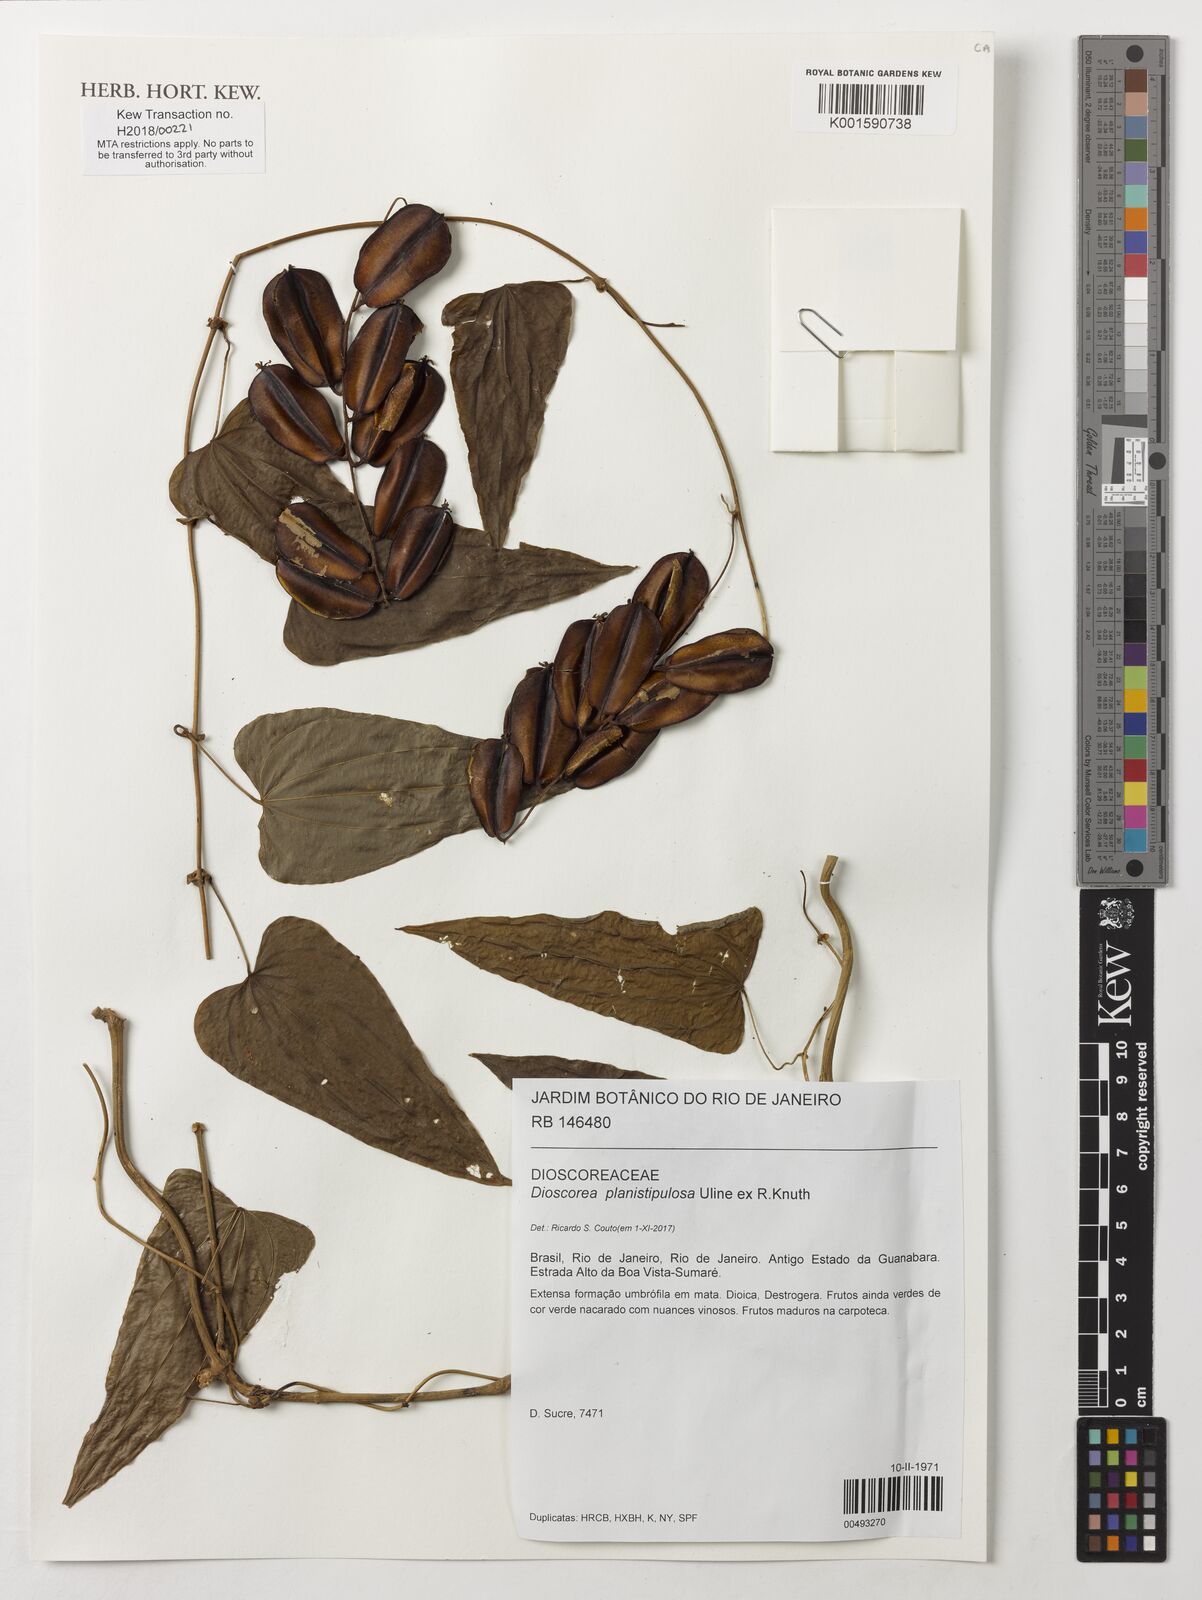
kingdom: Plantae
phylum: Tracheophyta
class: Liliopsida
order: Dioscoreales
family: Dioscoreaceae
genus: Dioscorea
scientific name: Dioscorea planistipulosa
